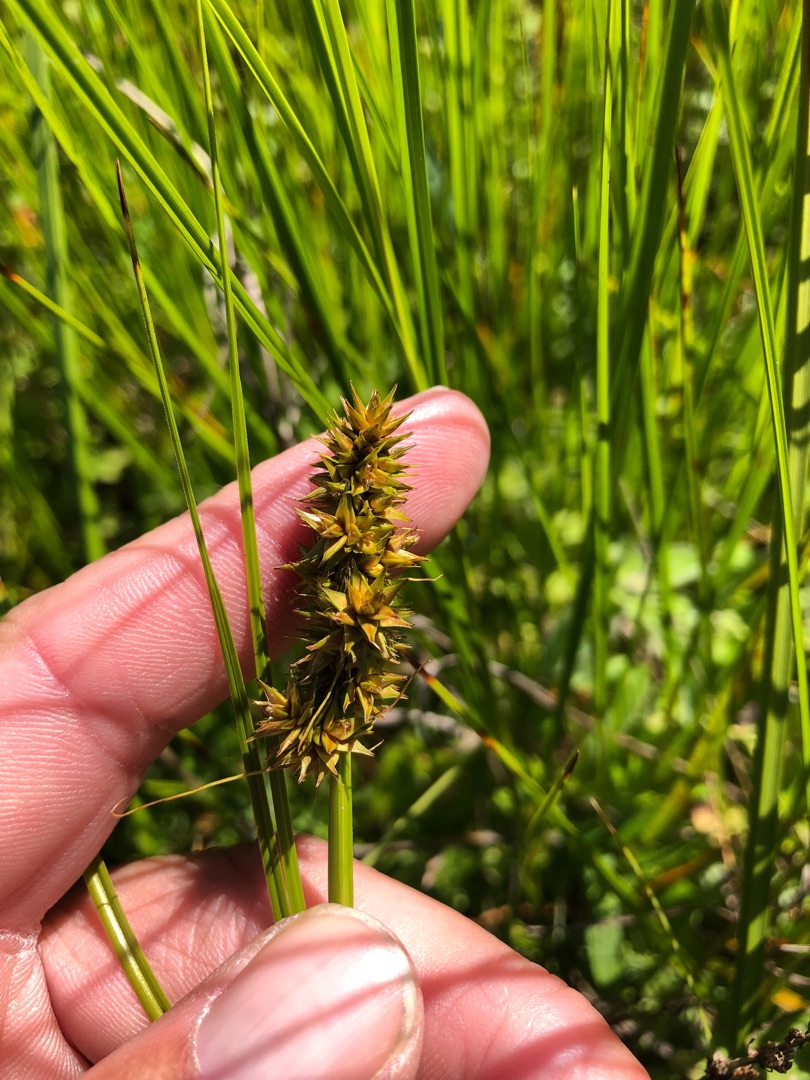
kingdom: Plantae
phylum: Tracheophyta
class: Liliopsida
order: Poales
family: Cyperaceae
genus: Carex
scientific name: Carex otrubae
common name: Sylt-star
